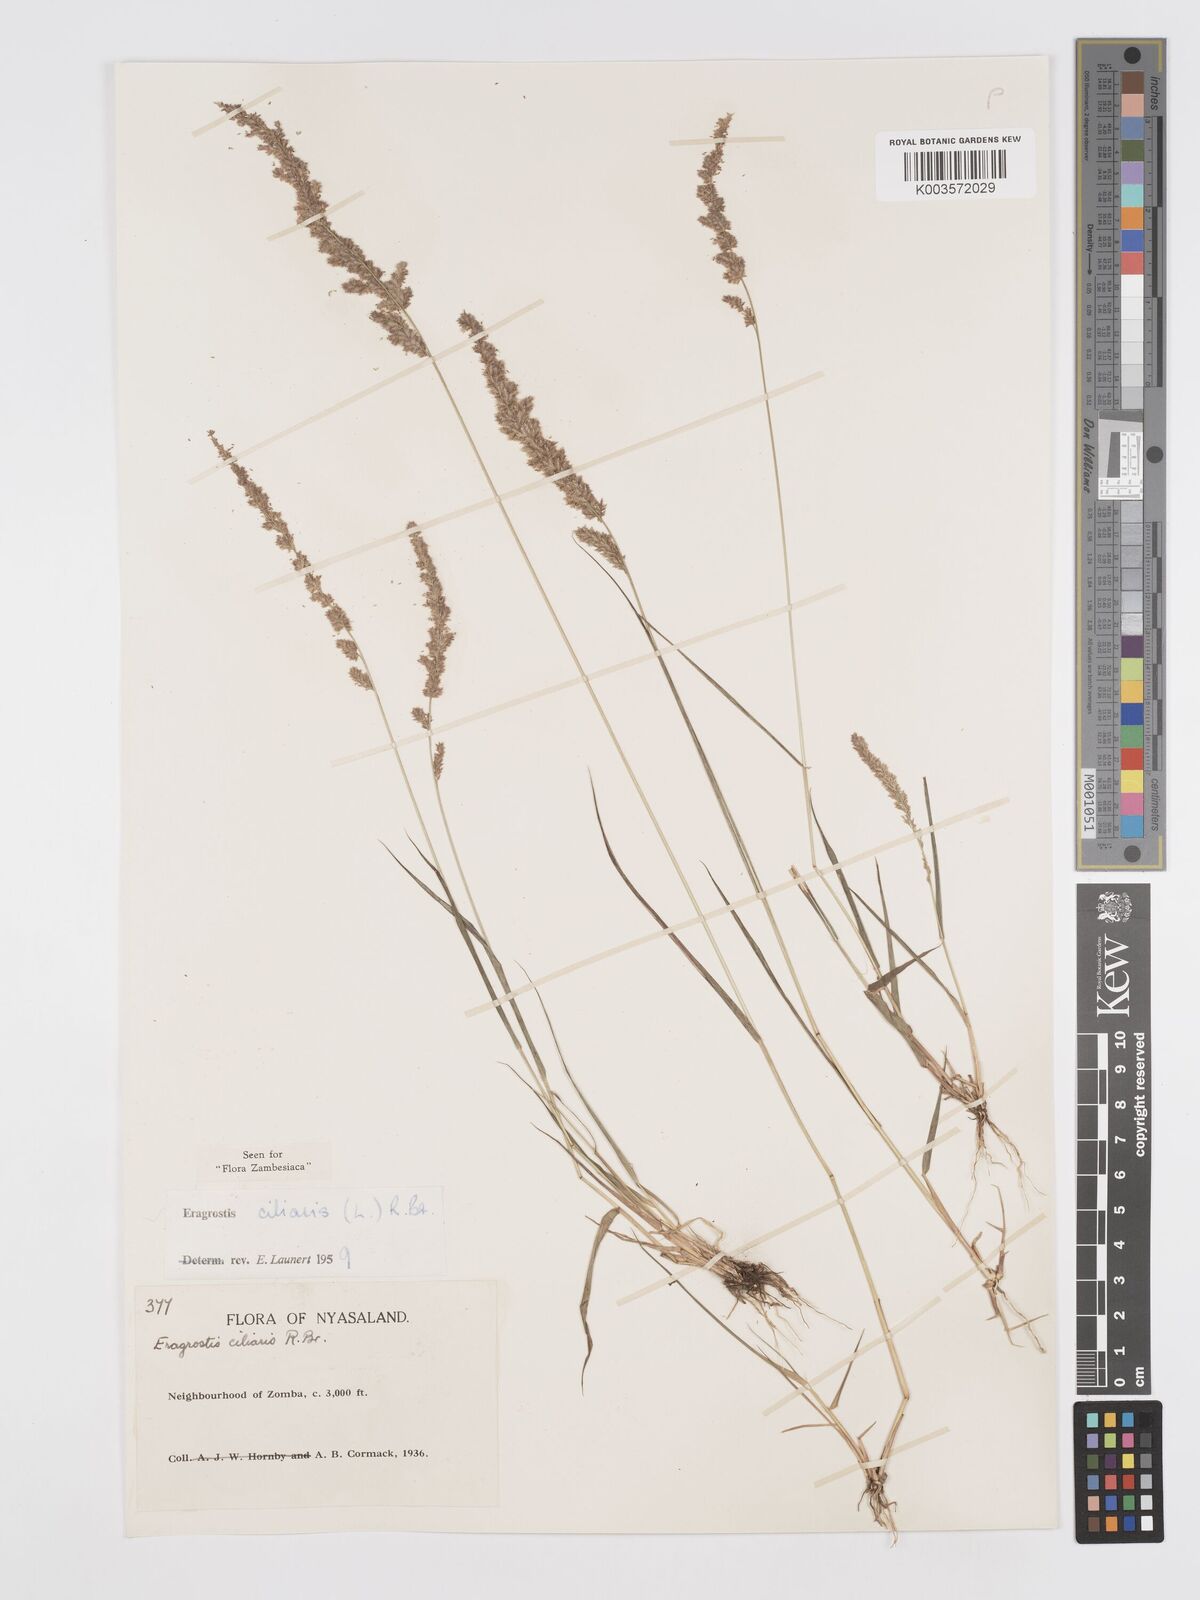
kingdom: Plantae
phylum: Tracheophyta
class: Liliopsida
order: Poales
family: Poaceae
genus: Eragrostis
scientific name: Eragrostis ciliaris
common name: Gophertail lovegrass
